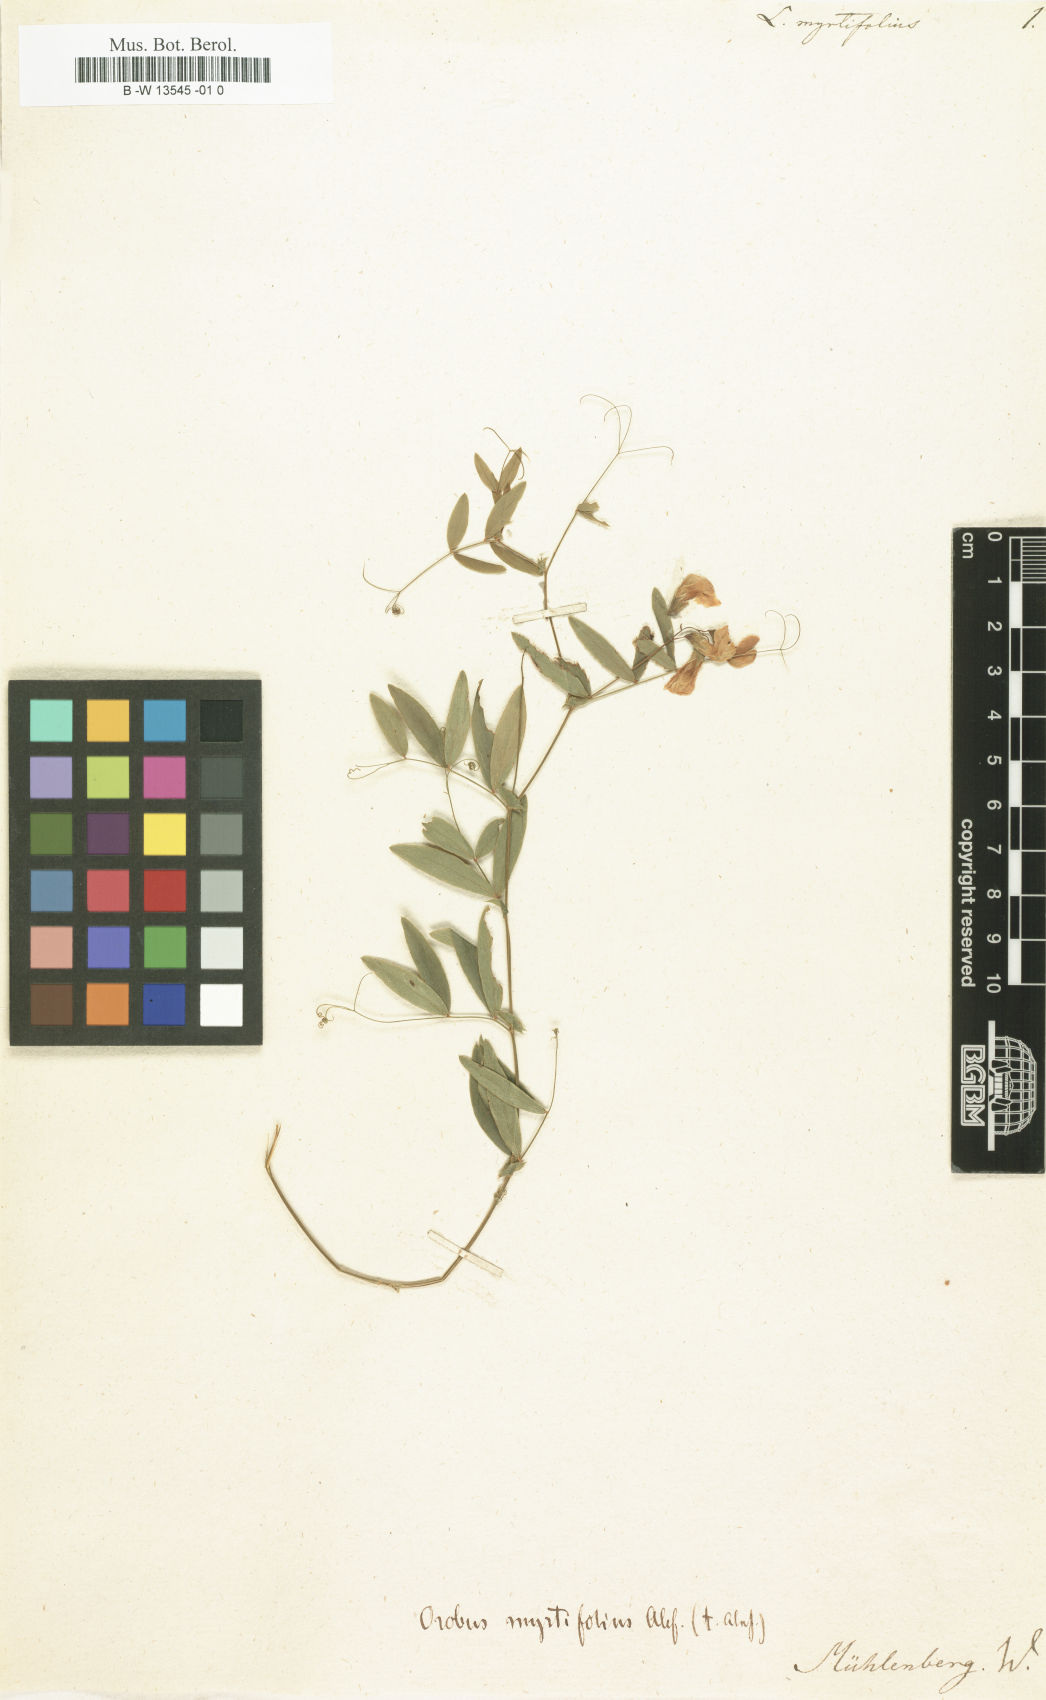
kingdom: Plantae
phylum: Tracheophyta
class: Magnoliopsida
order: Fabales
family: Fabaceae
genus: Lathyrus
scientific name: Lathyrus
